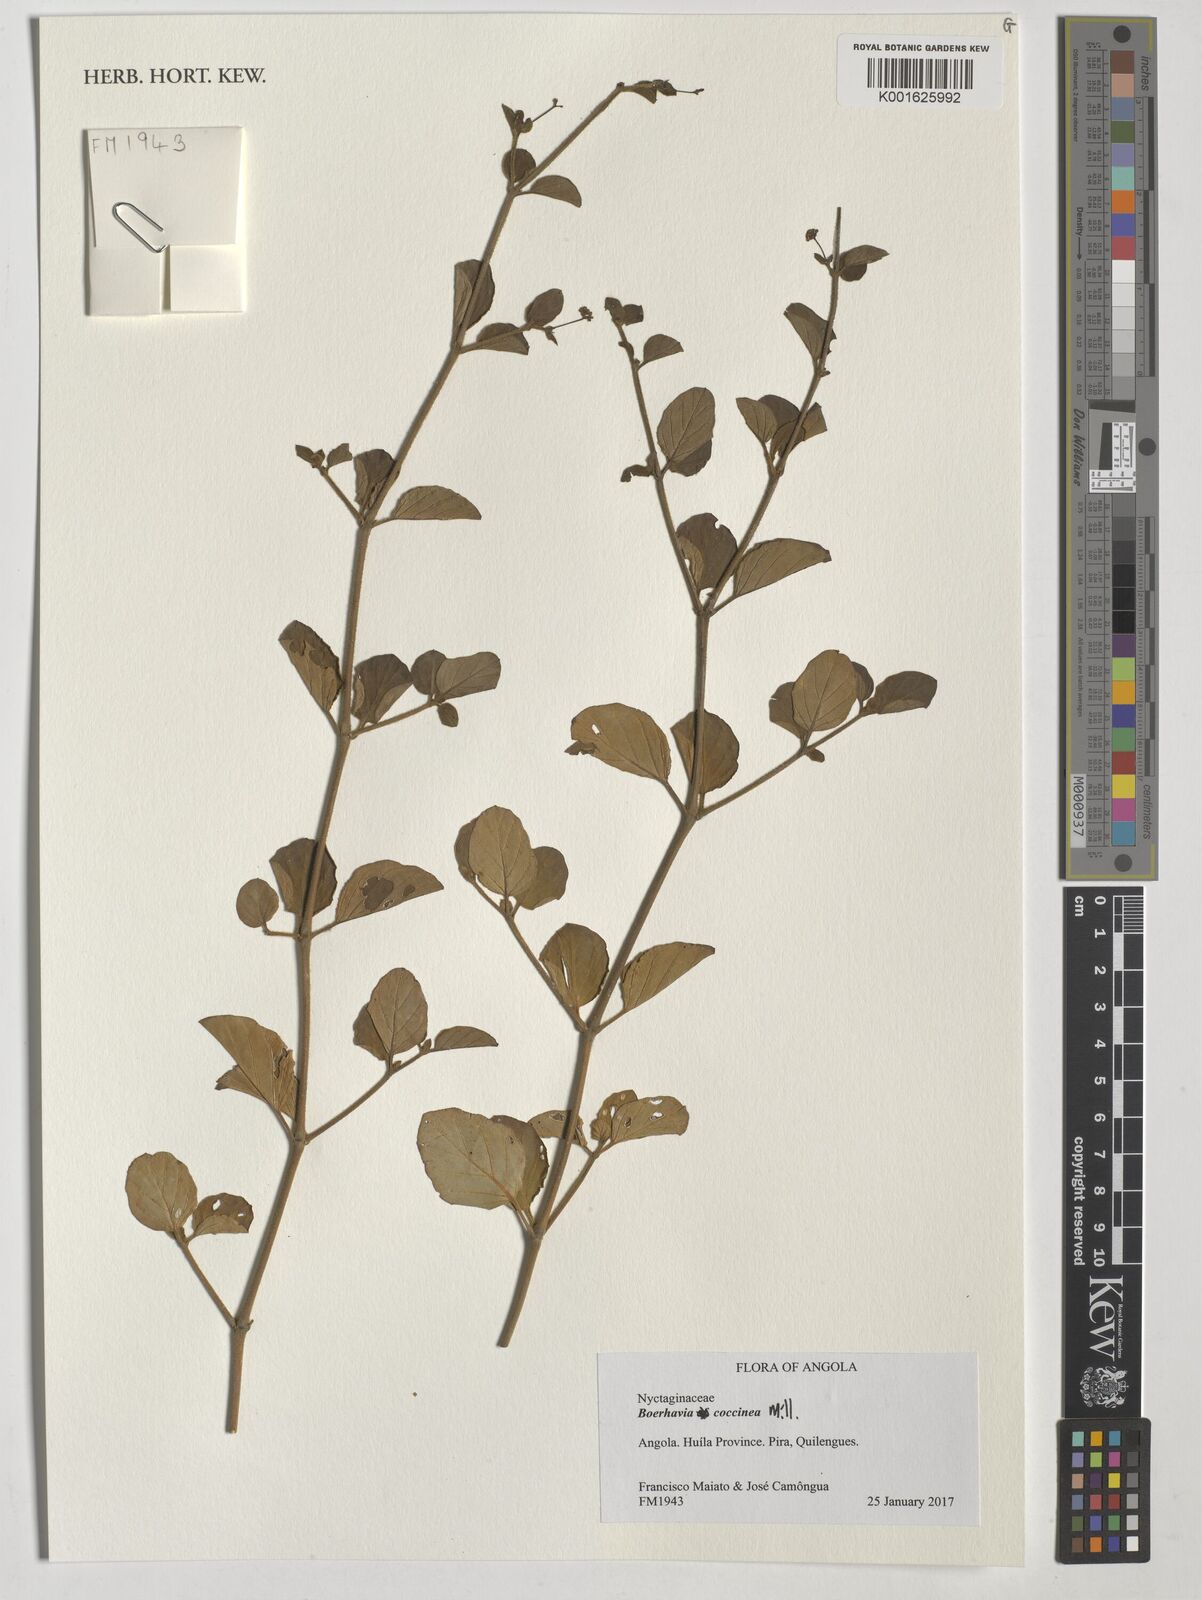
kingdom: Plantae
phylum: Tracheophyta
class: Magnoliopsida
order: Caryophyllales
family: Nyctaginaceae
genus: Boerhavia
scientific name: Boerhavia coccinea
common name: Scarlet spiderling
